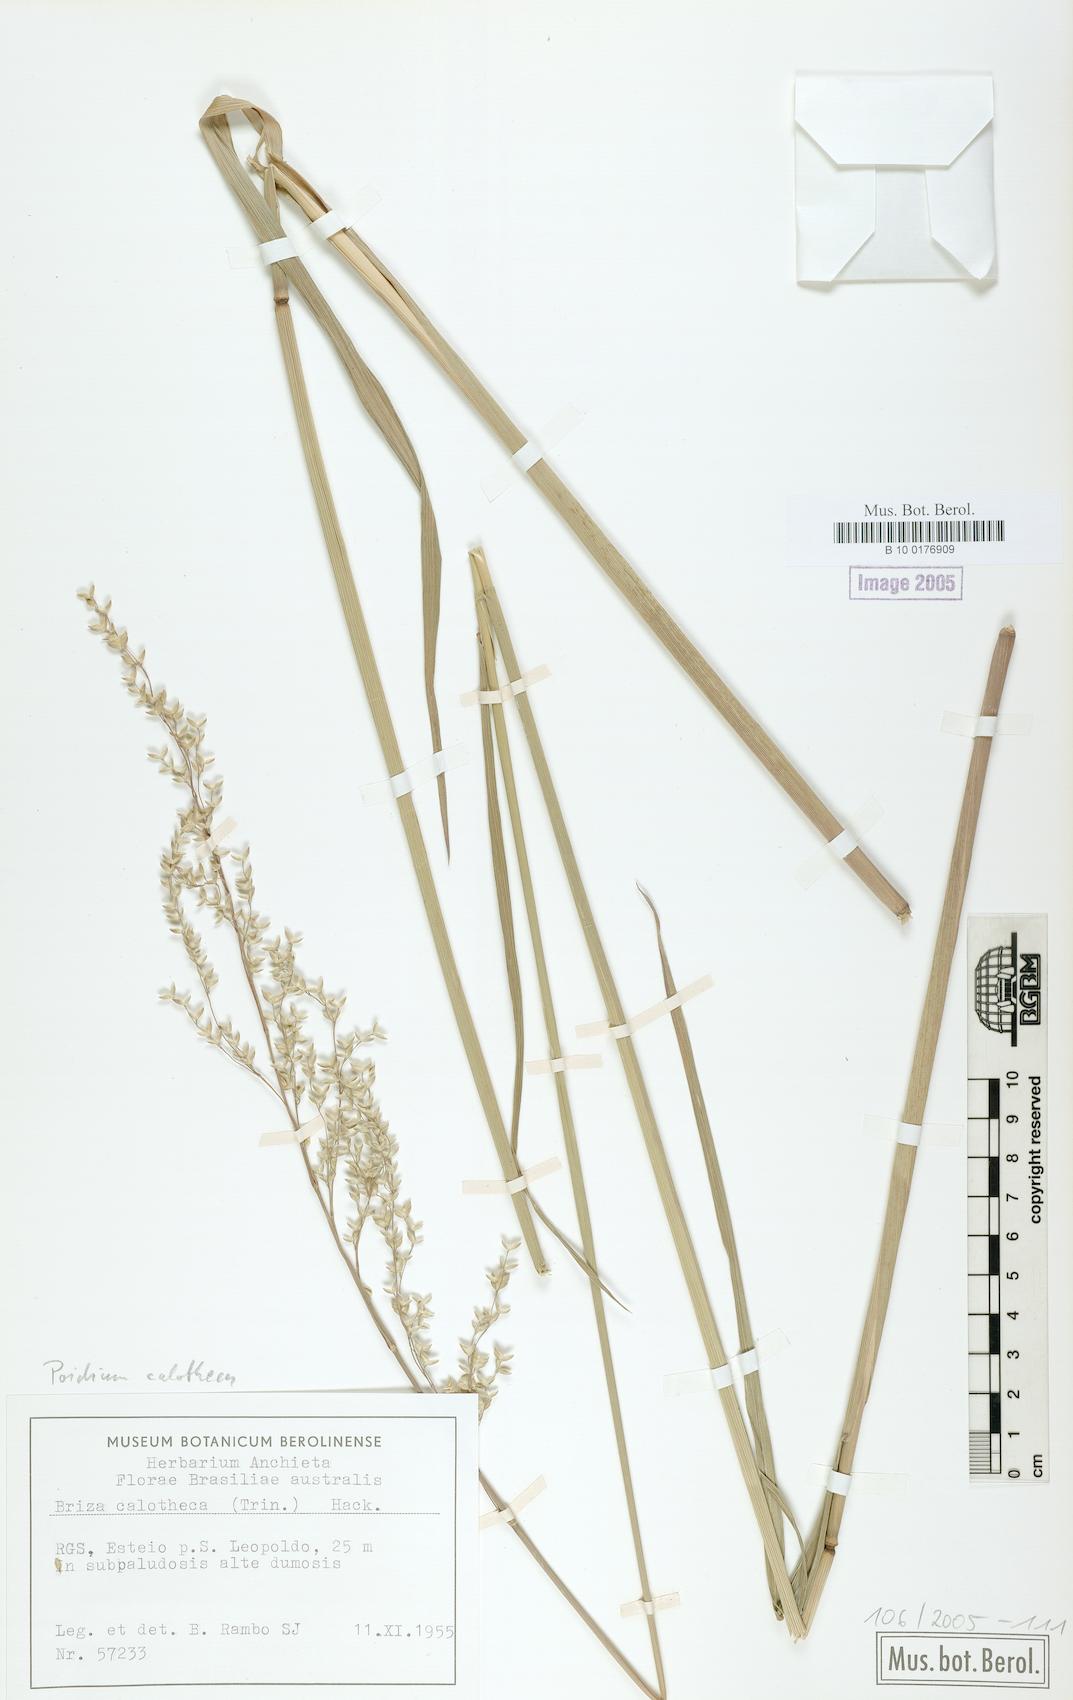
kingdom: Plantae
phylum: Tracheophyta
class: Liliopsida
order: Poales
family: Poaceae
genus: Poidium
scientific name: Poidium calotheca
